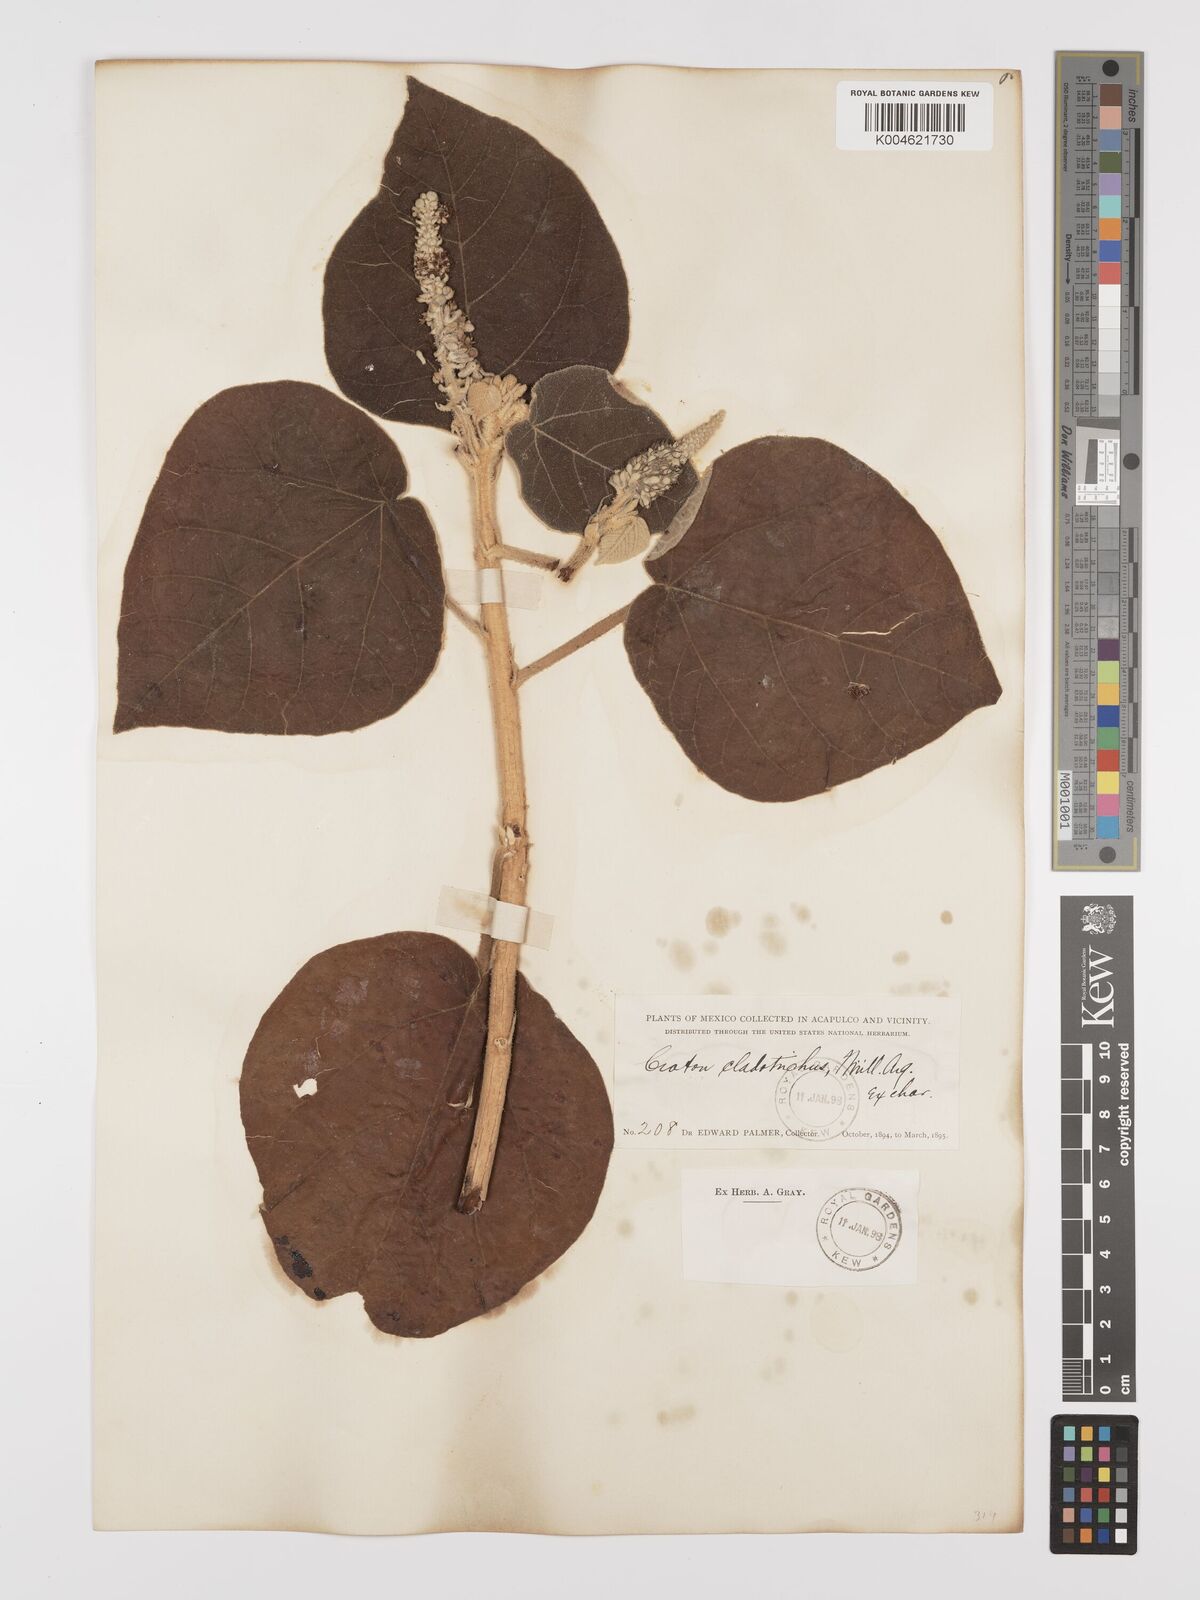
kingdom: Plantae
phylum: Tracheophyta
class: Magnoliopsida
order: Malpighiales
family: Euphorbiaceae
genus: Croton
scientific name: Croton suberosus
